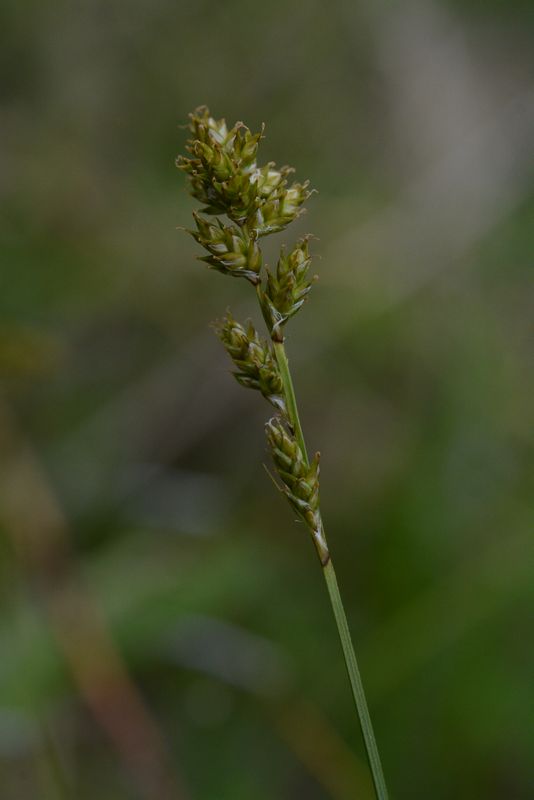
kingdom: Plantae
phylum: Tracheophyta
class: Liliopsida
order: Poales
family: Cyperaceae
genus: Carex
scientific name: Carex brunnescens
